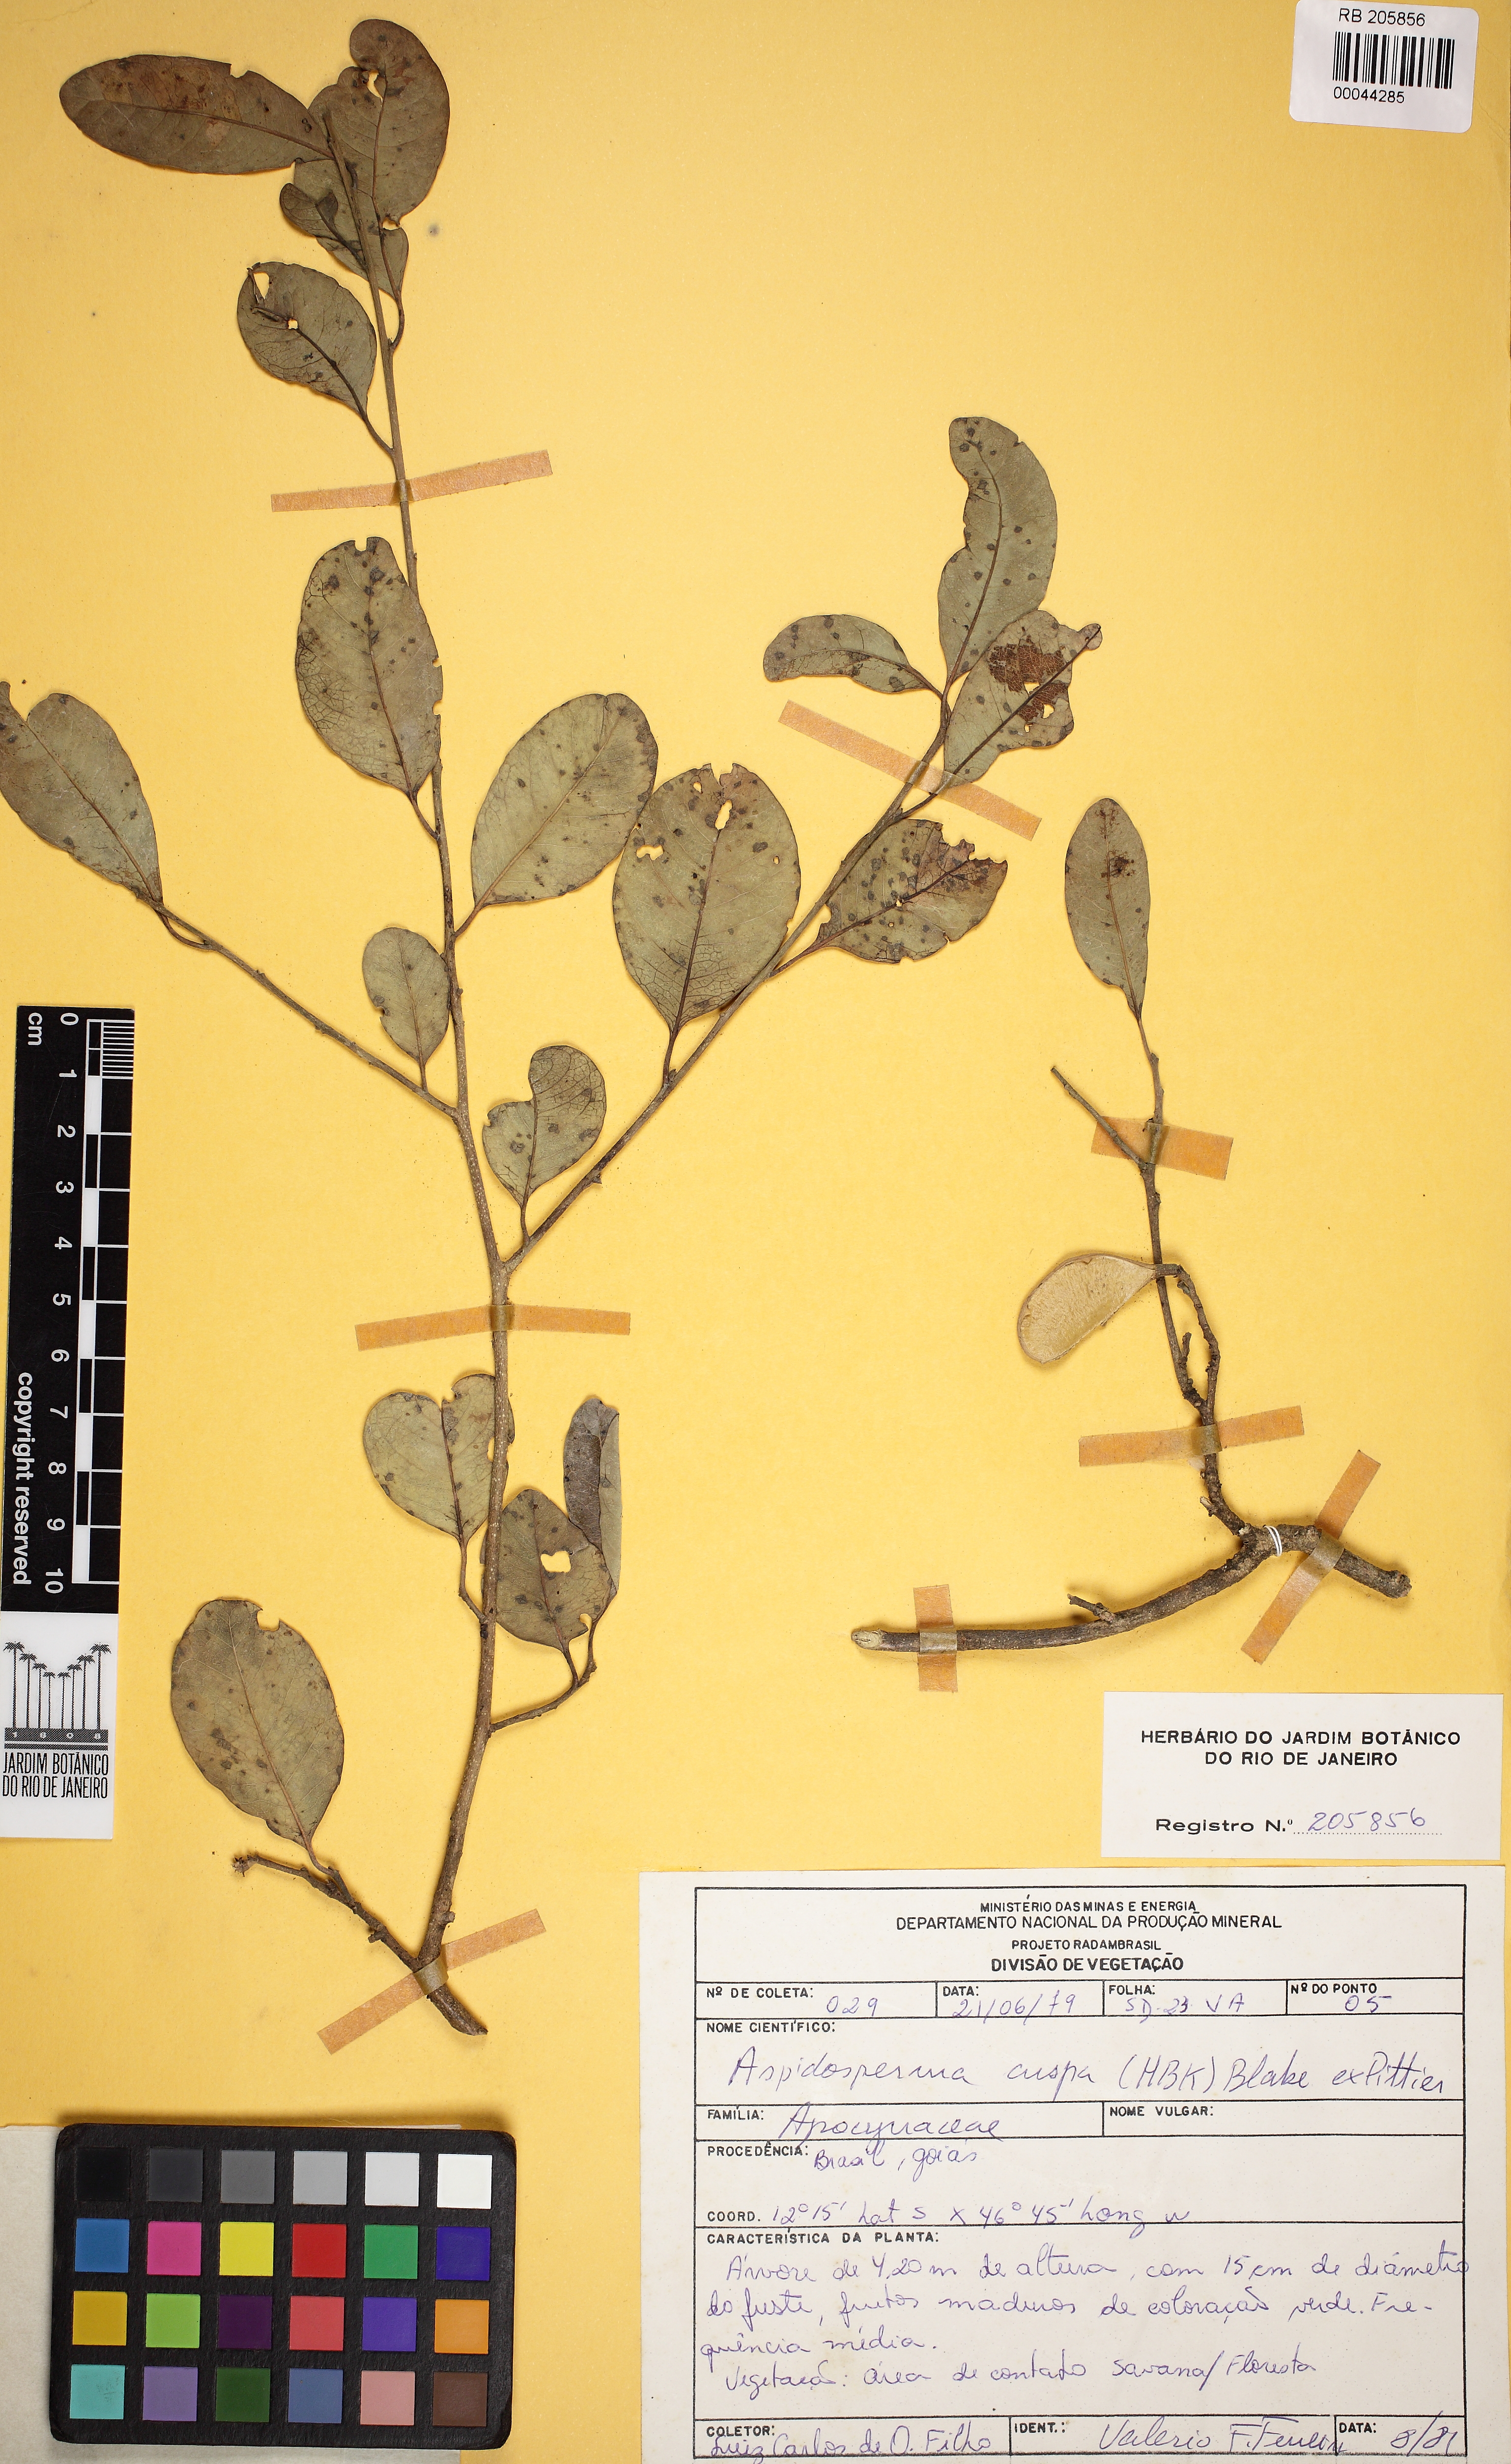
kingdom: Plantae
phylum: Tracheophyta
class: Magnoliopsida
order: Gentianales
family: Apocynaceae
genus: Aspidosperma
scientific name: Aspidosperma cuspa
